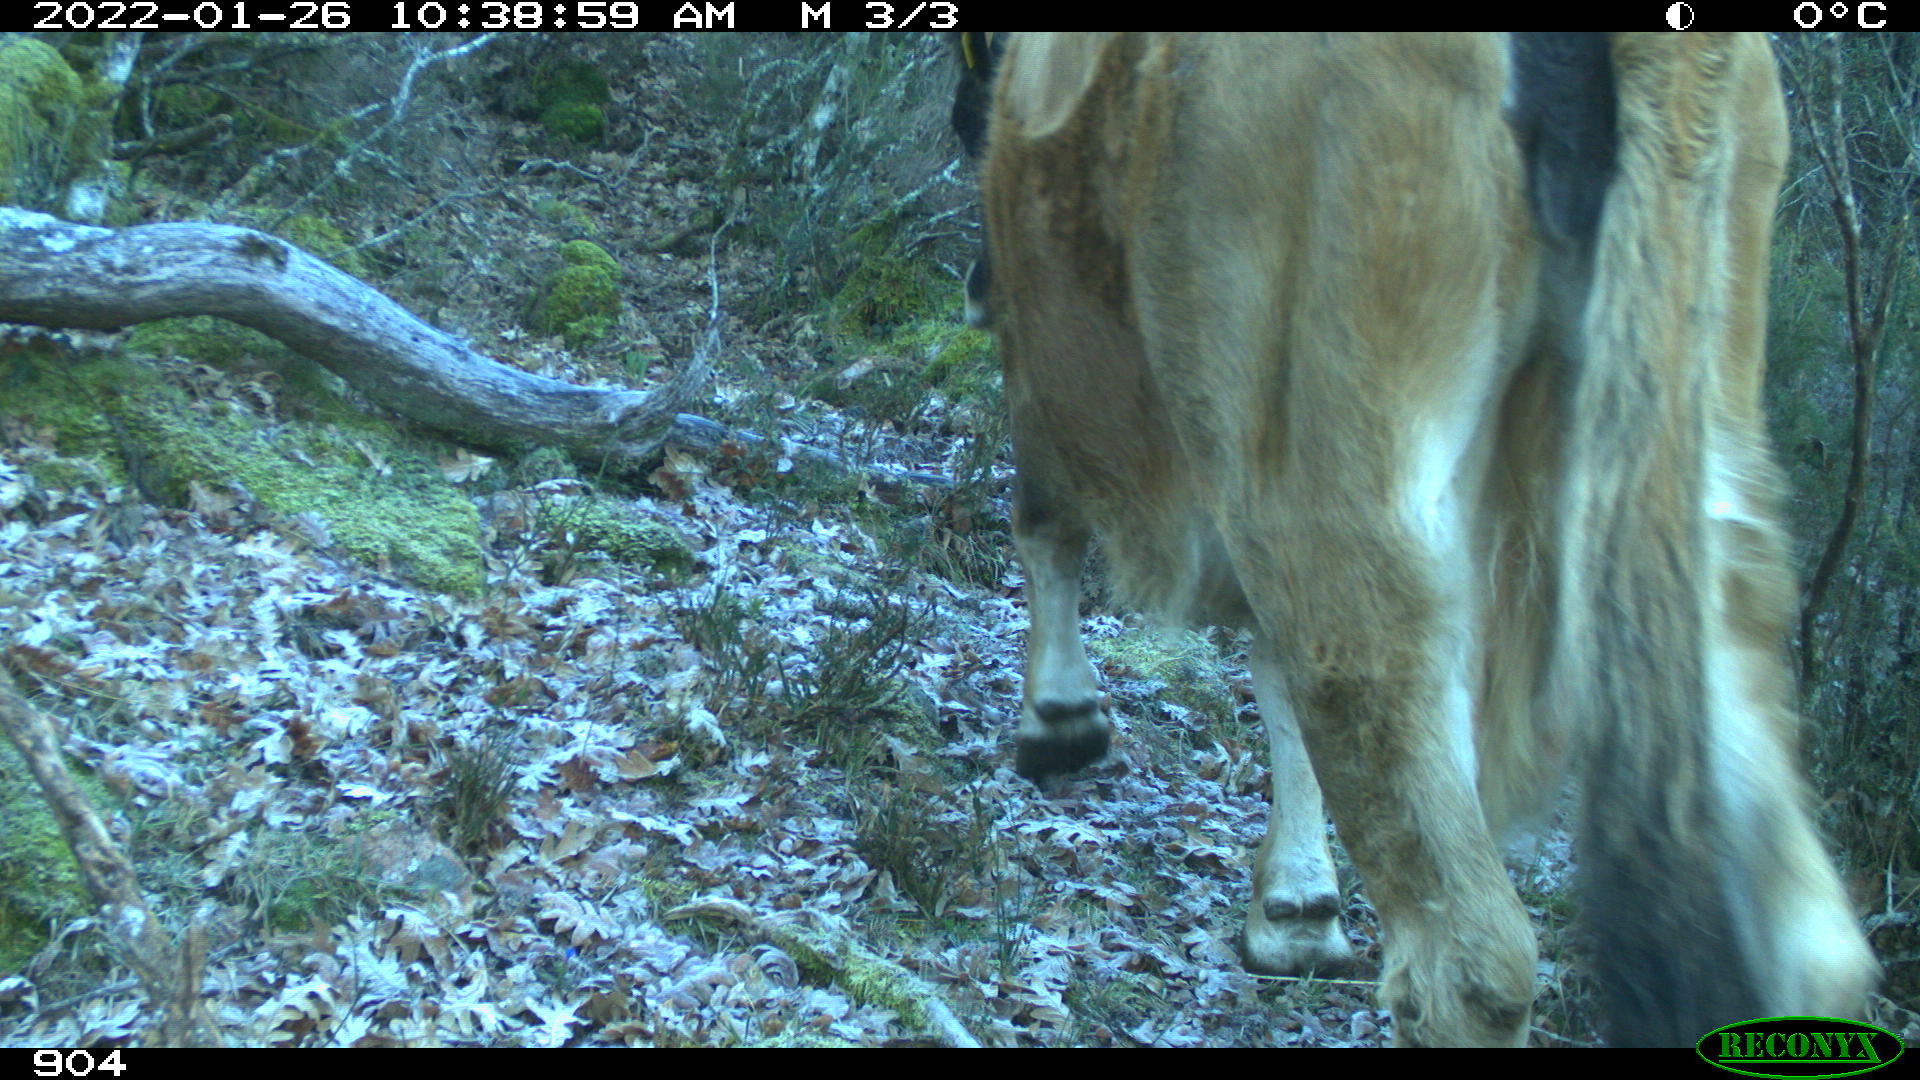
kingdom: Animalia
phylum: Chordata
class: Mammalia
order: Artiodactyla
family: Bovidae
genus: Bos
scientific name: Bos taurus
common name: Domesticated cattle
